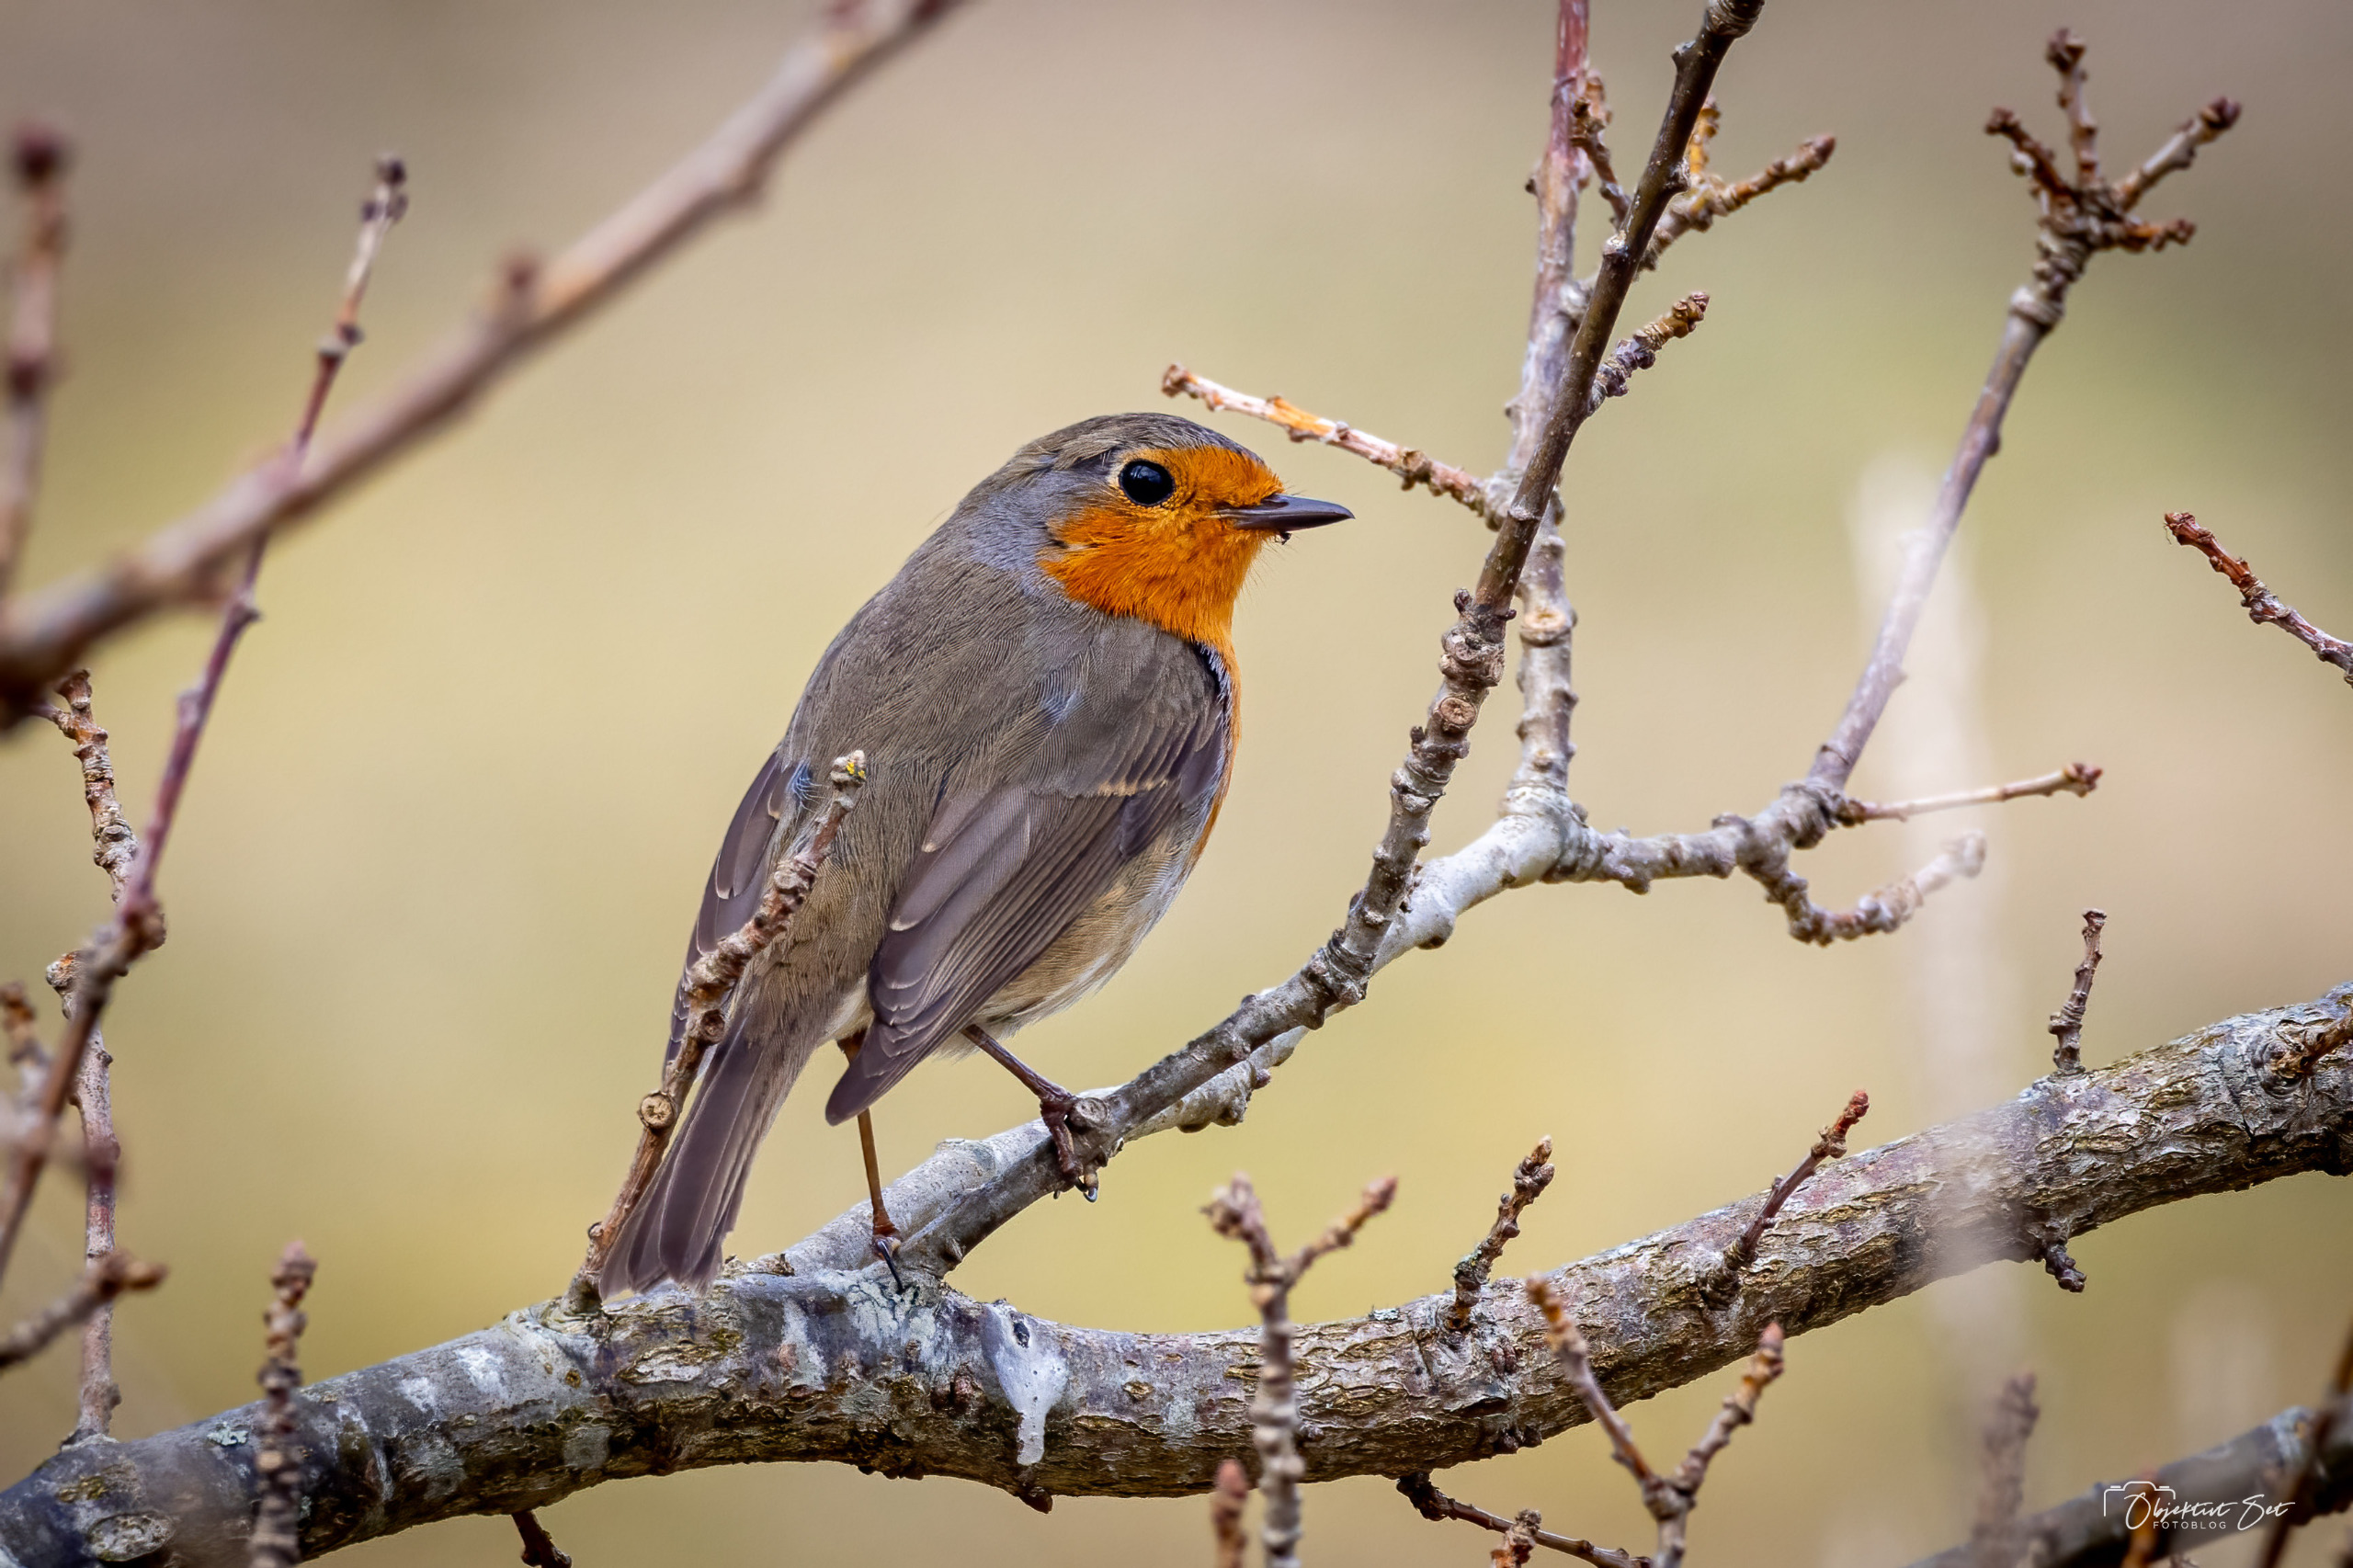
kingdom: Animalia
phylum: Chordata
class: Aves
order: Passeriformes
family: Muscicapidae
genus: Erithacus
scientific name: Erithacus rubecula
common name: Rødhals/rødkælk
